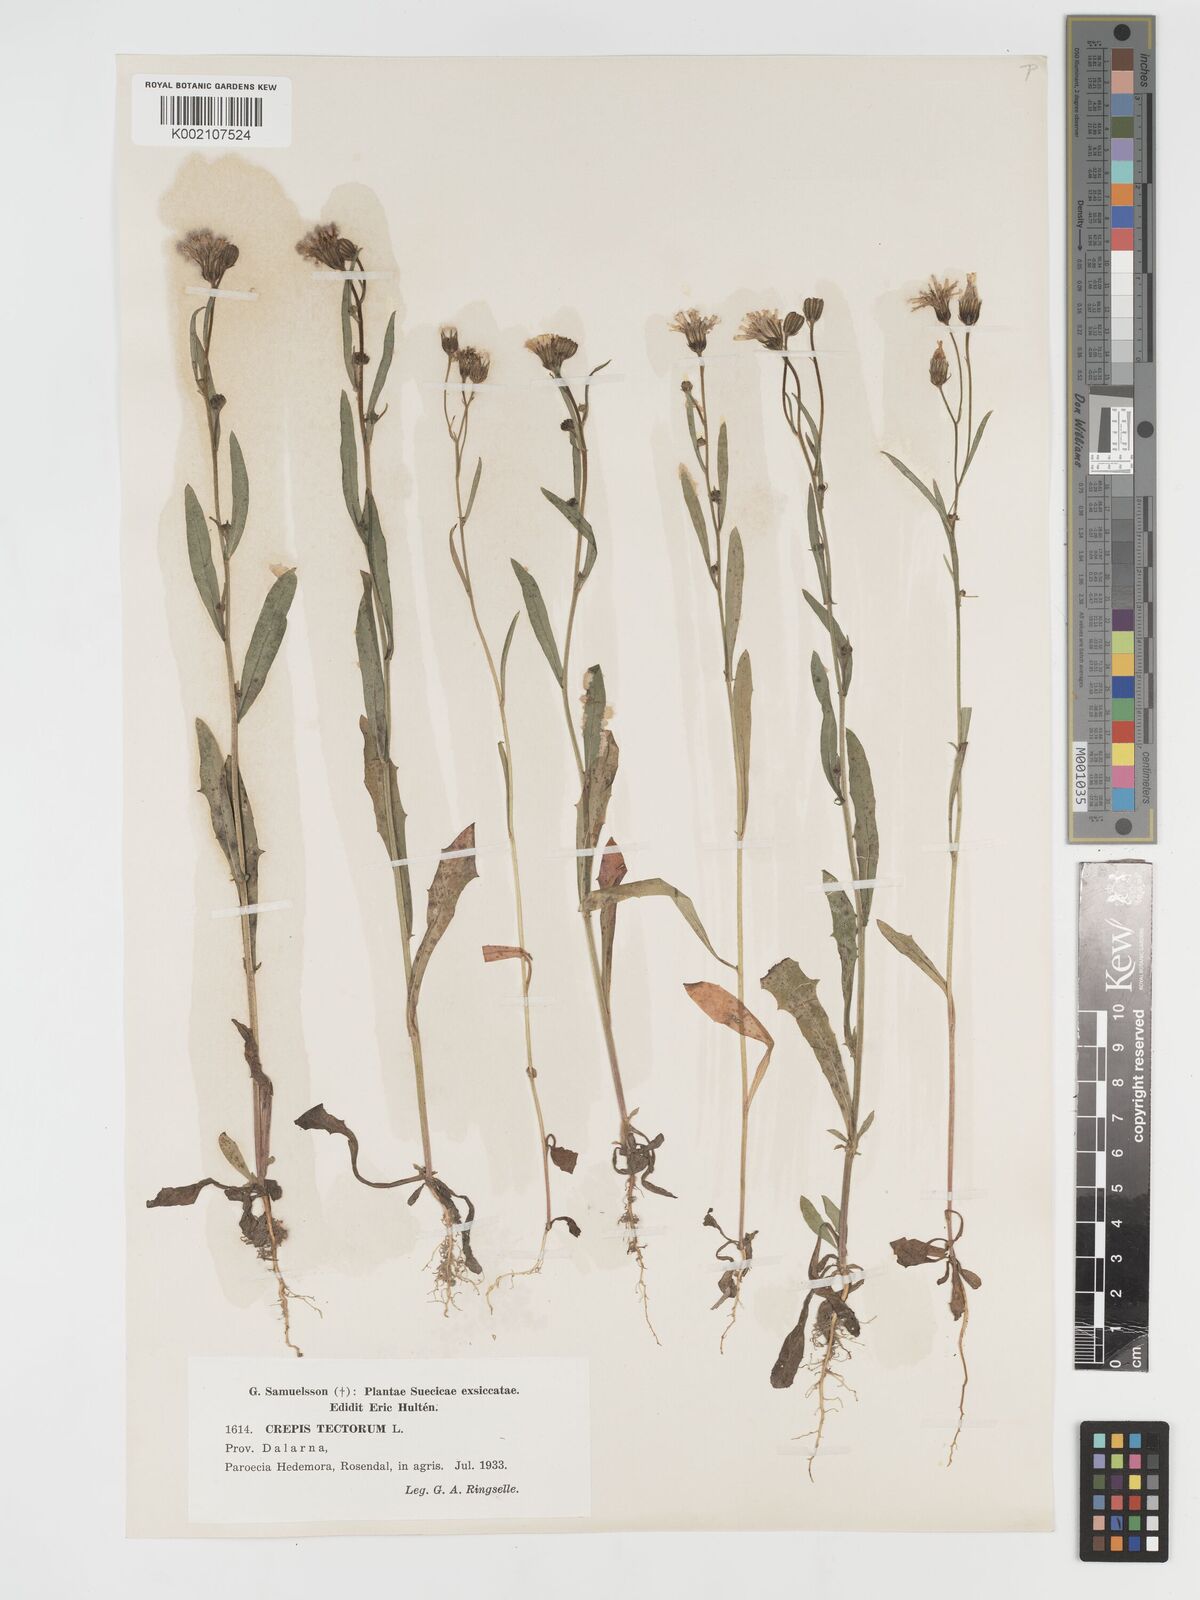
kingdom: Plantae
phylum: Tracheophyta
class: Magnoliopsida
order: Asterales
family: Asteraceae
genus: Crepis
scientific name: Crepis tectorum
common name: Narrow-leaved hawk's-beard
